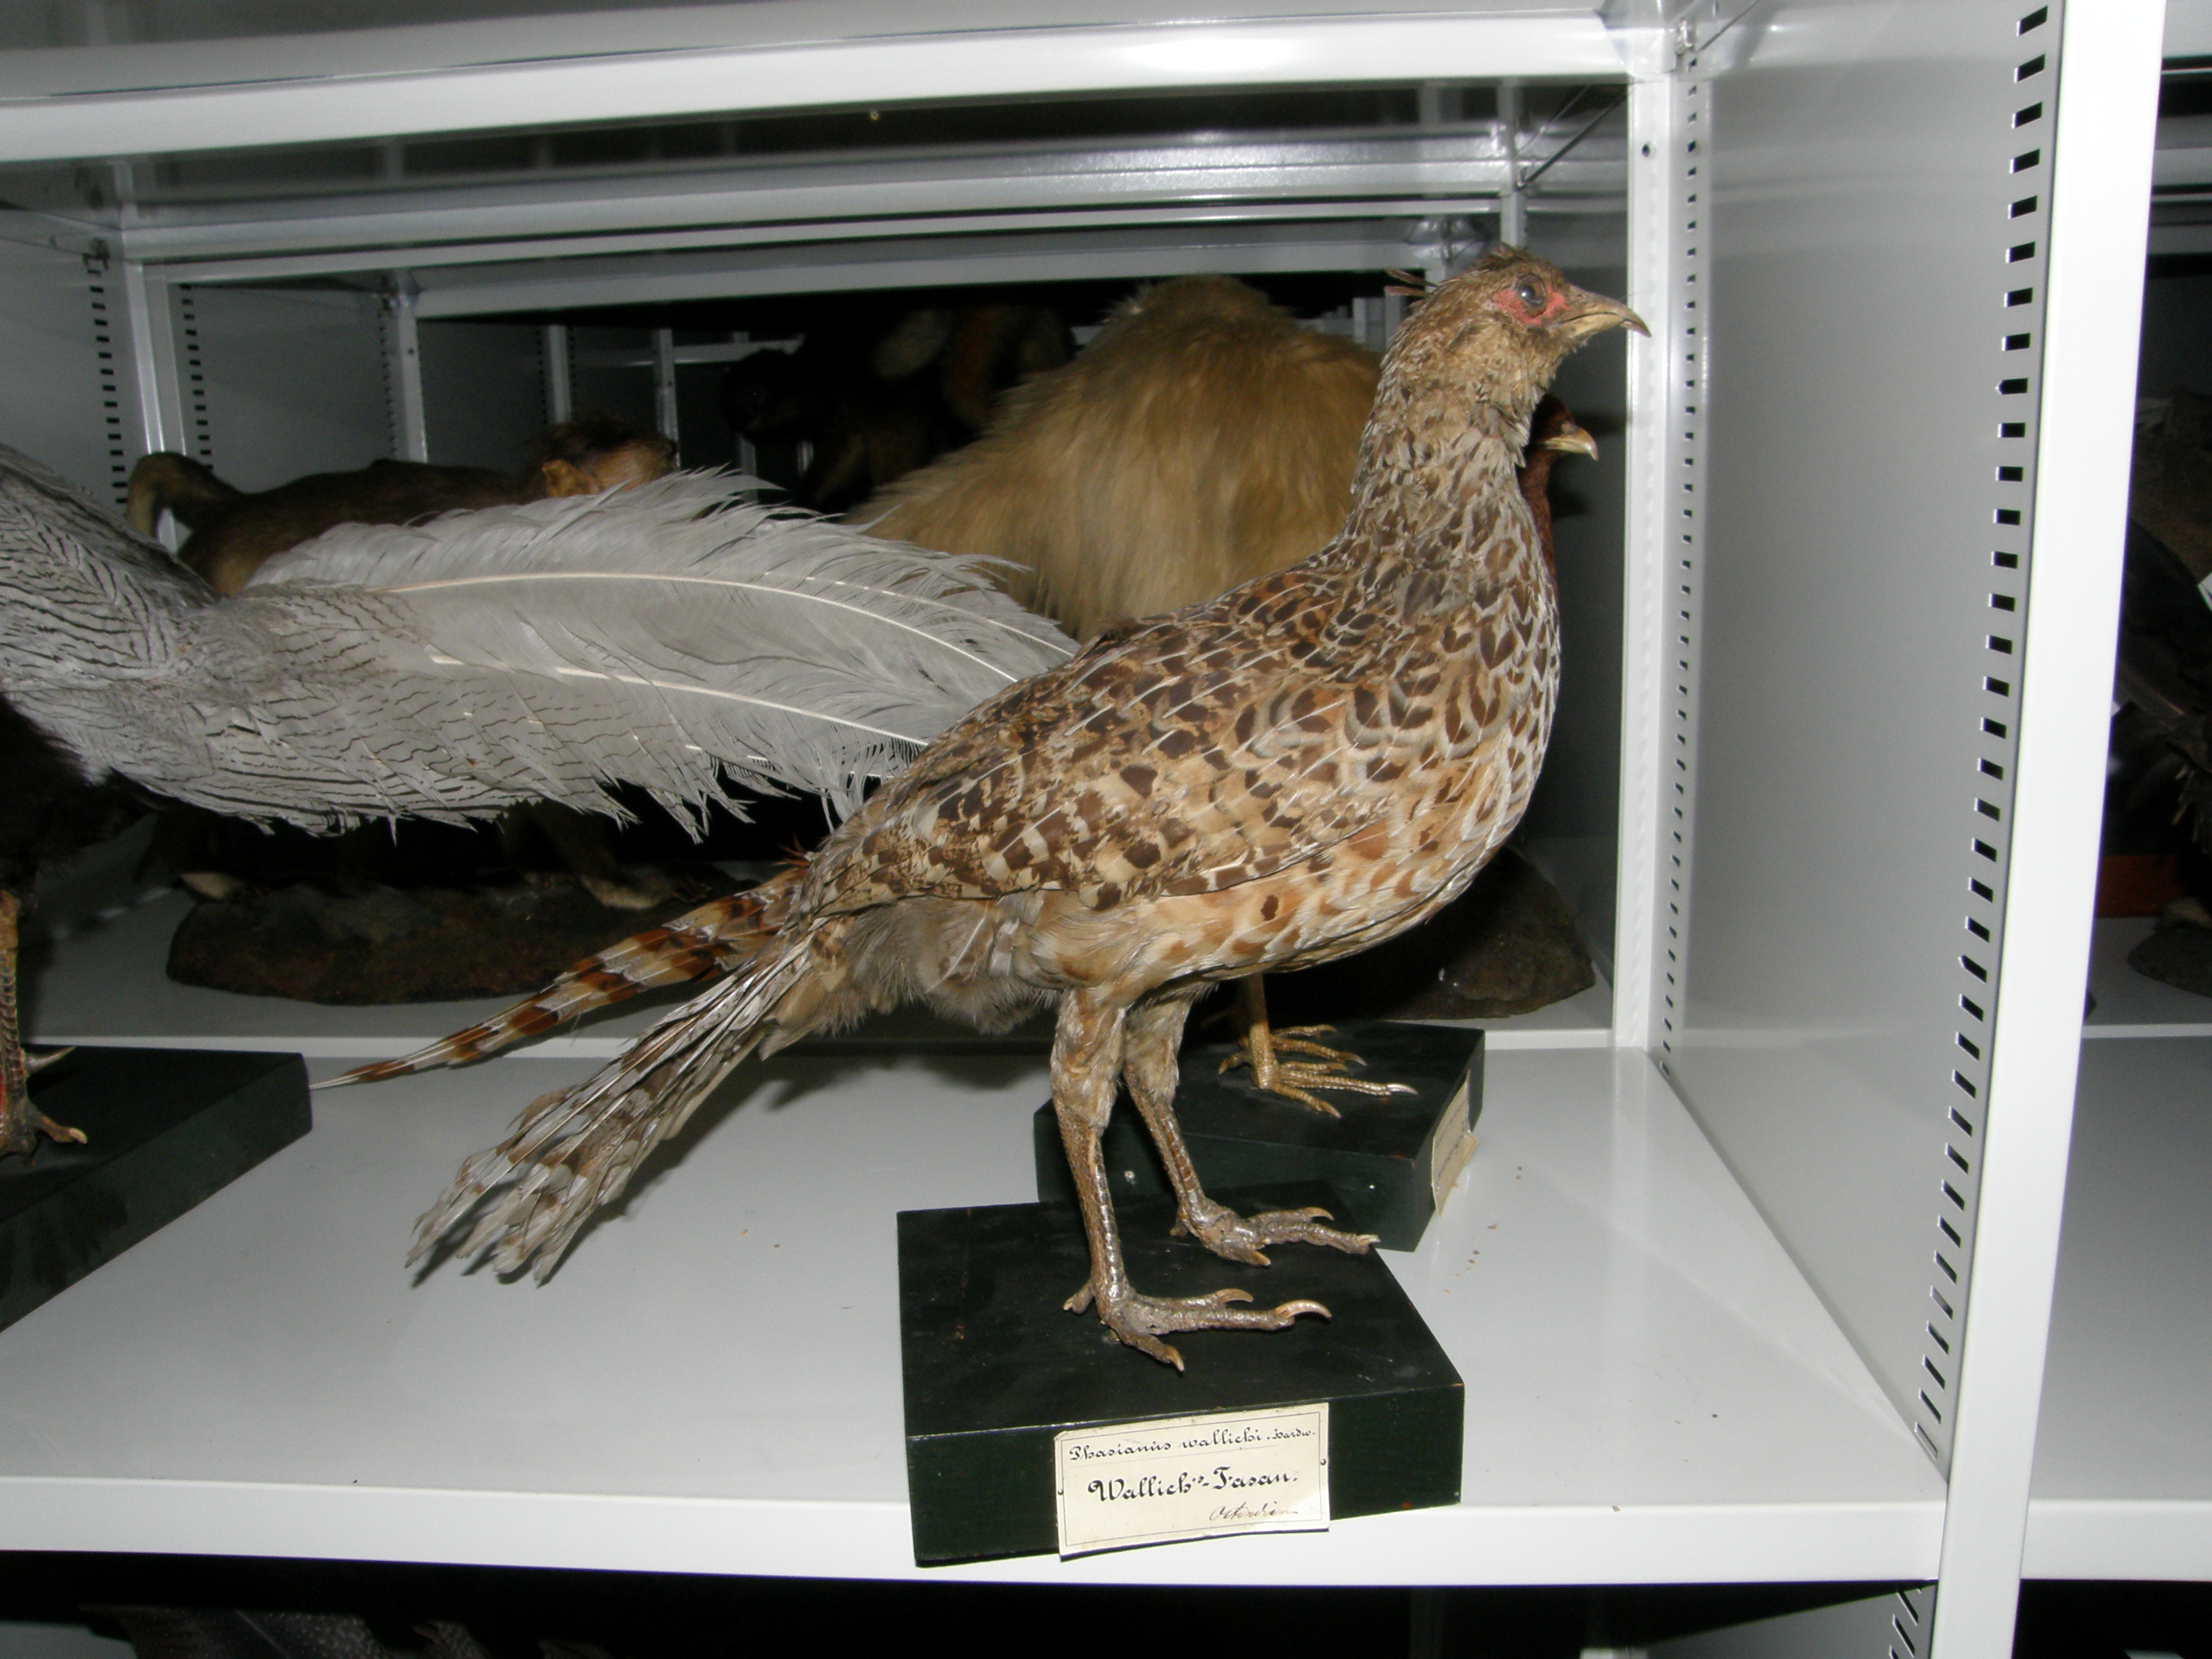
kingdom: Animalia
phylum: Chordata
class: Aves
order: Passeriformes
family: Passeridae
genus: Passer
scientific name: Passer montanus
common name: Eurasian tree sparrow
